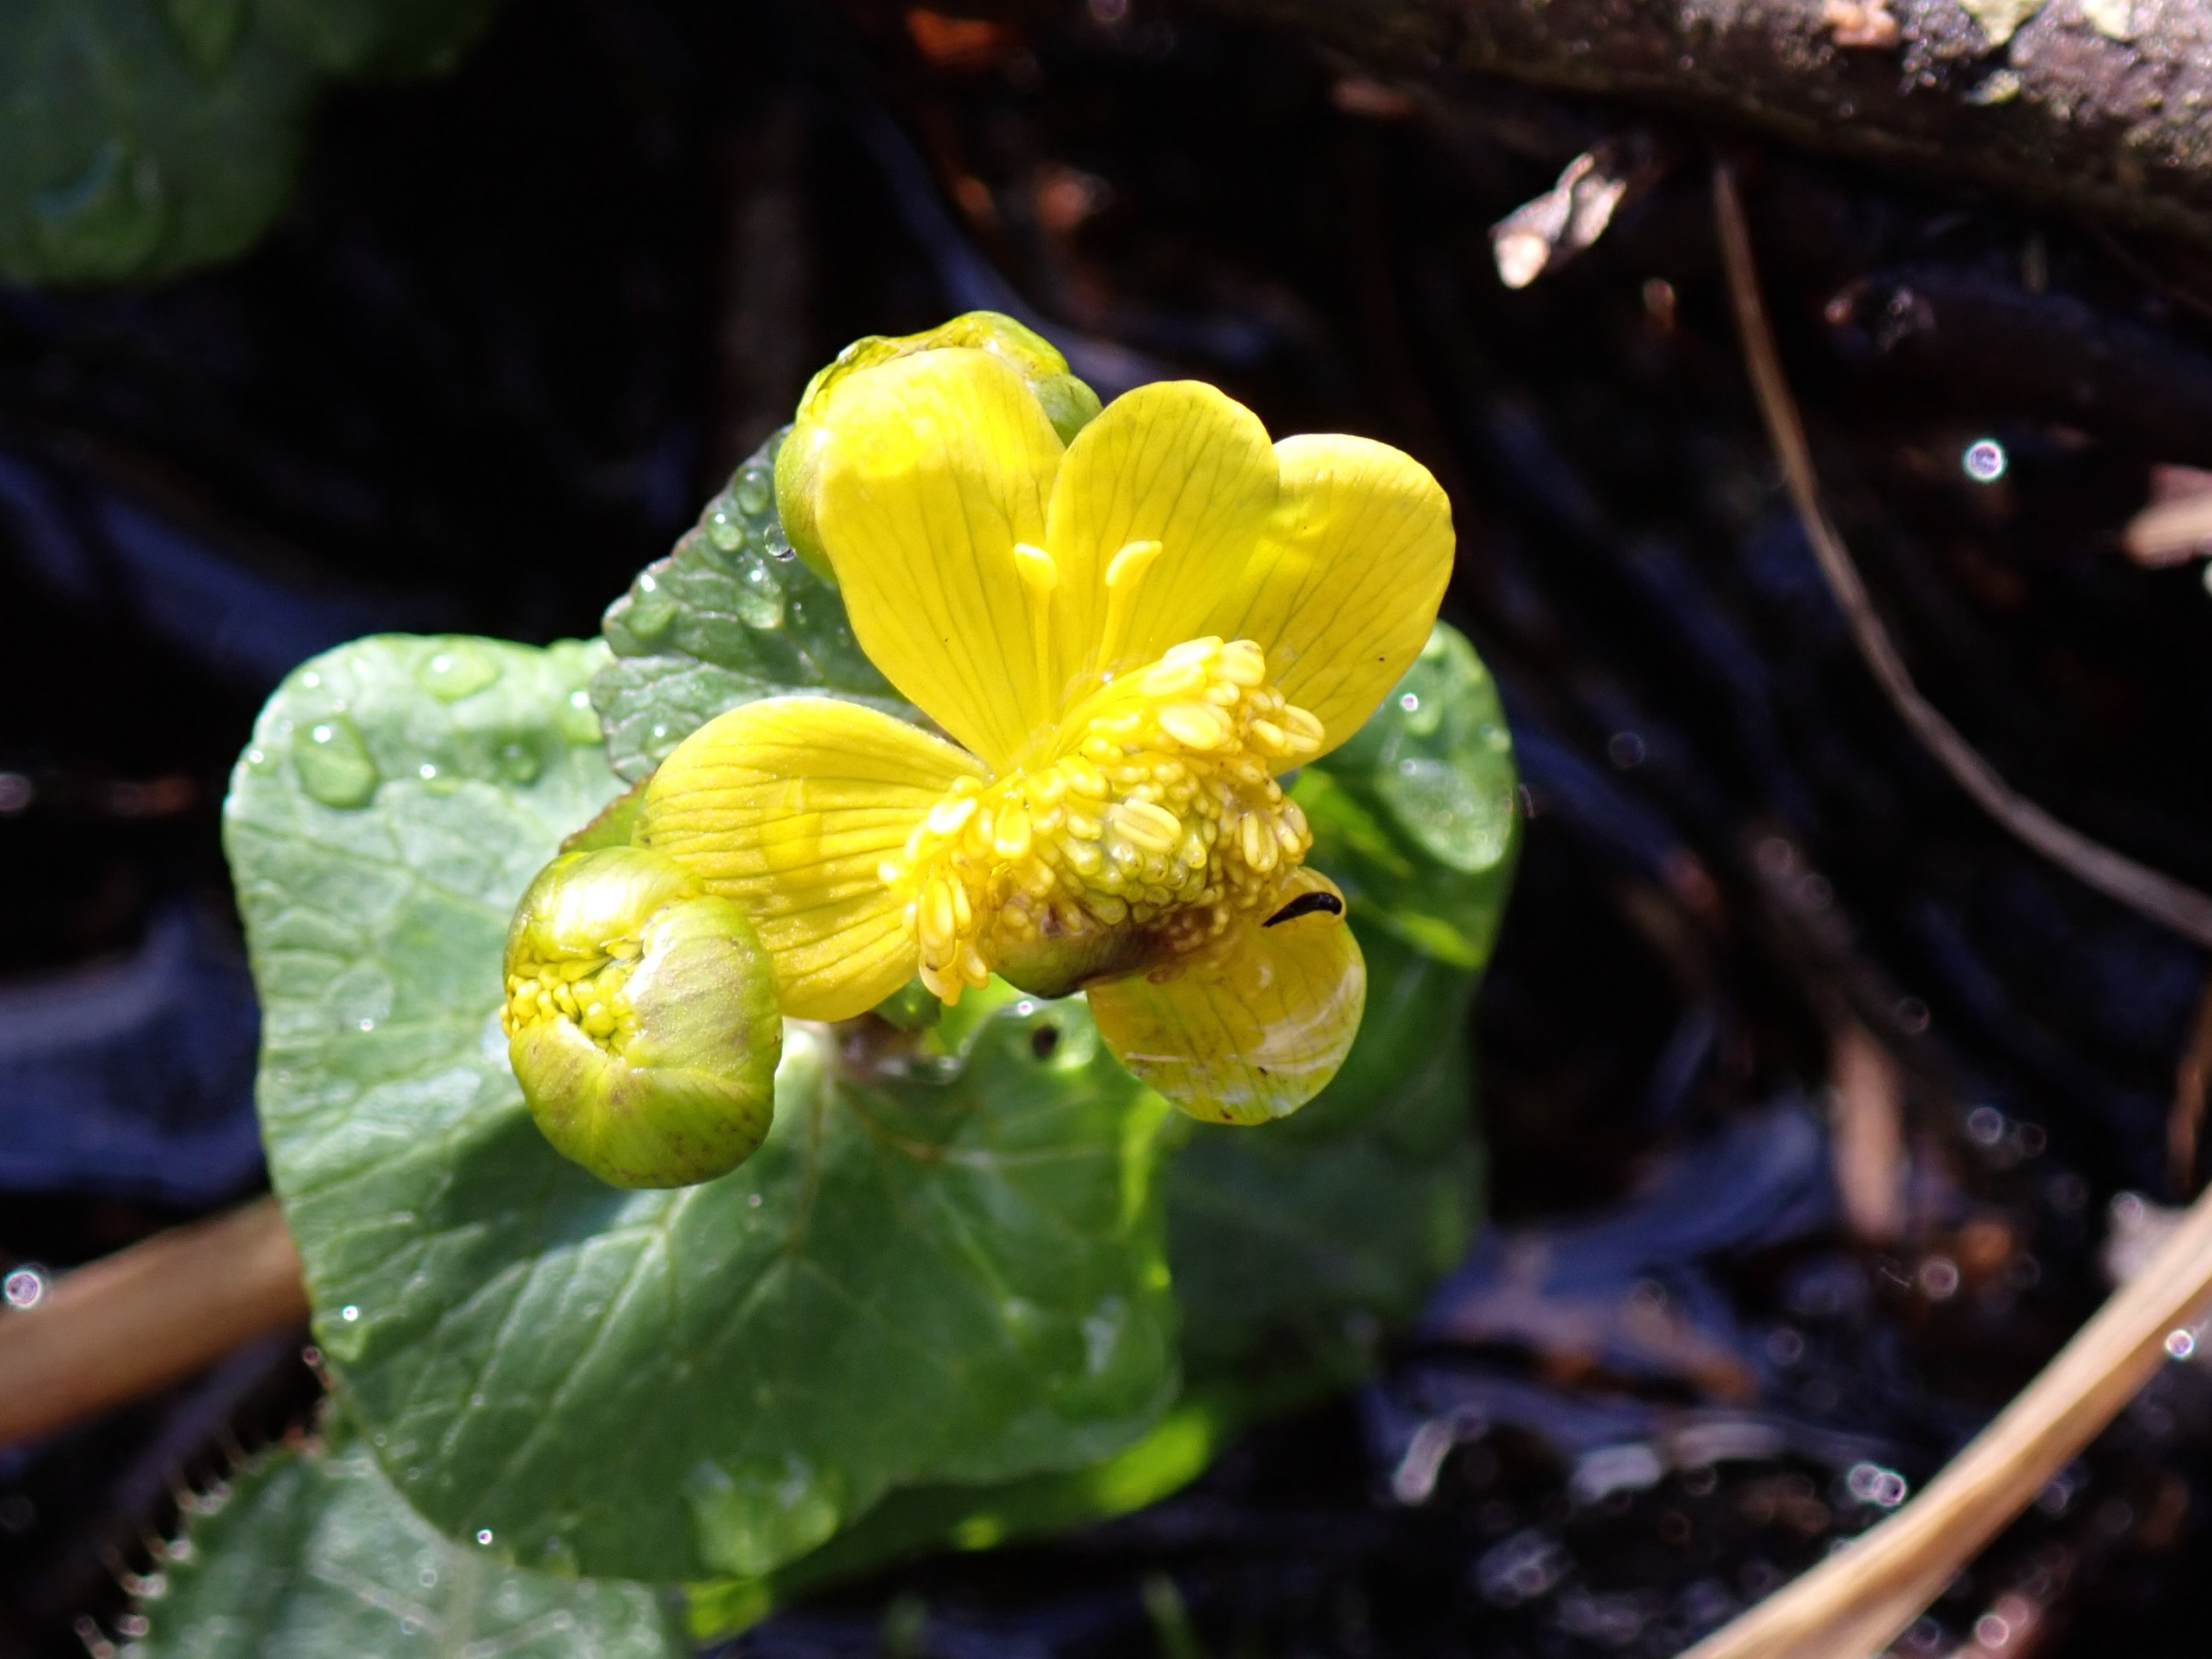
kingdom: Plantae
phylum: Tracheophyta
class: Magnoliopsida
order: Ranunculales
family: Ranunculaceae
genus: Caltha
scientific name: Caltha palustris
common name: Eng-kabbeleje
